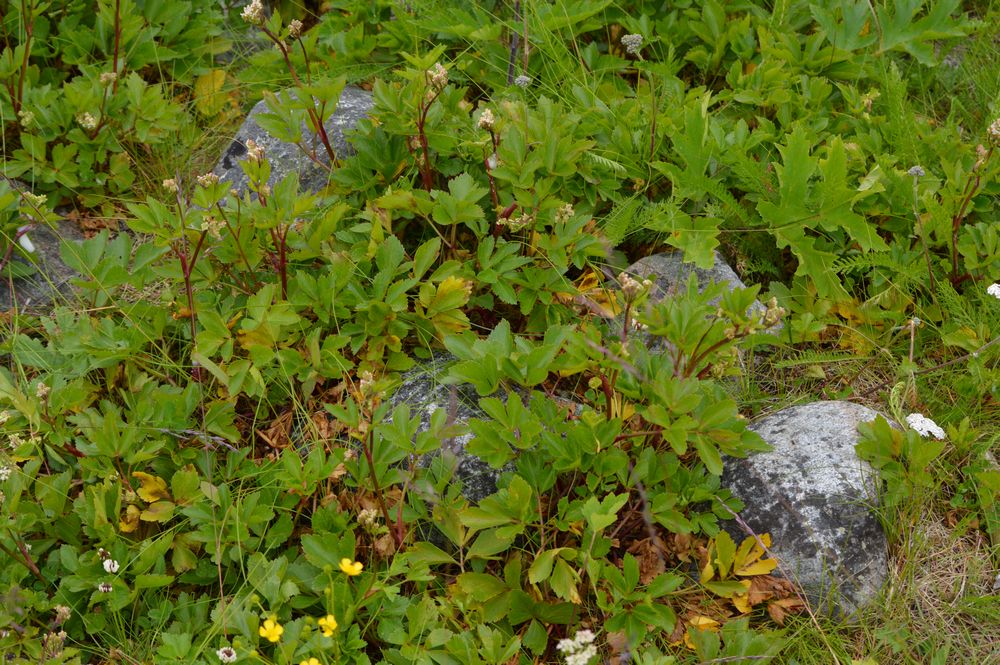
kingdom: Plantae
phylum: Tracheophyta
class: Magnoliopsida
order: Apiales
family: Apiaceae
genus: Ligusticum
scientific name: Ligusticum scothicum
